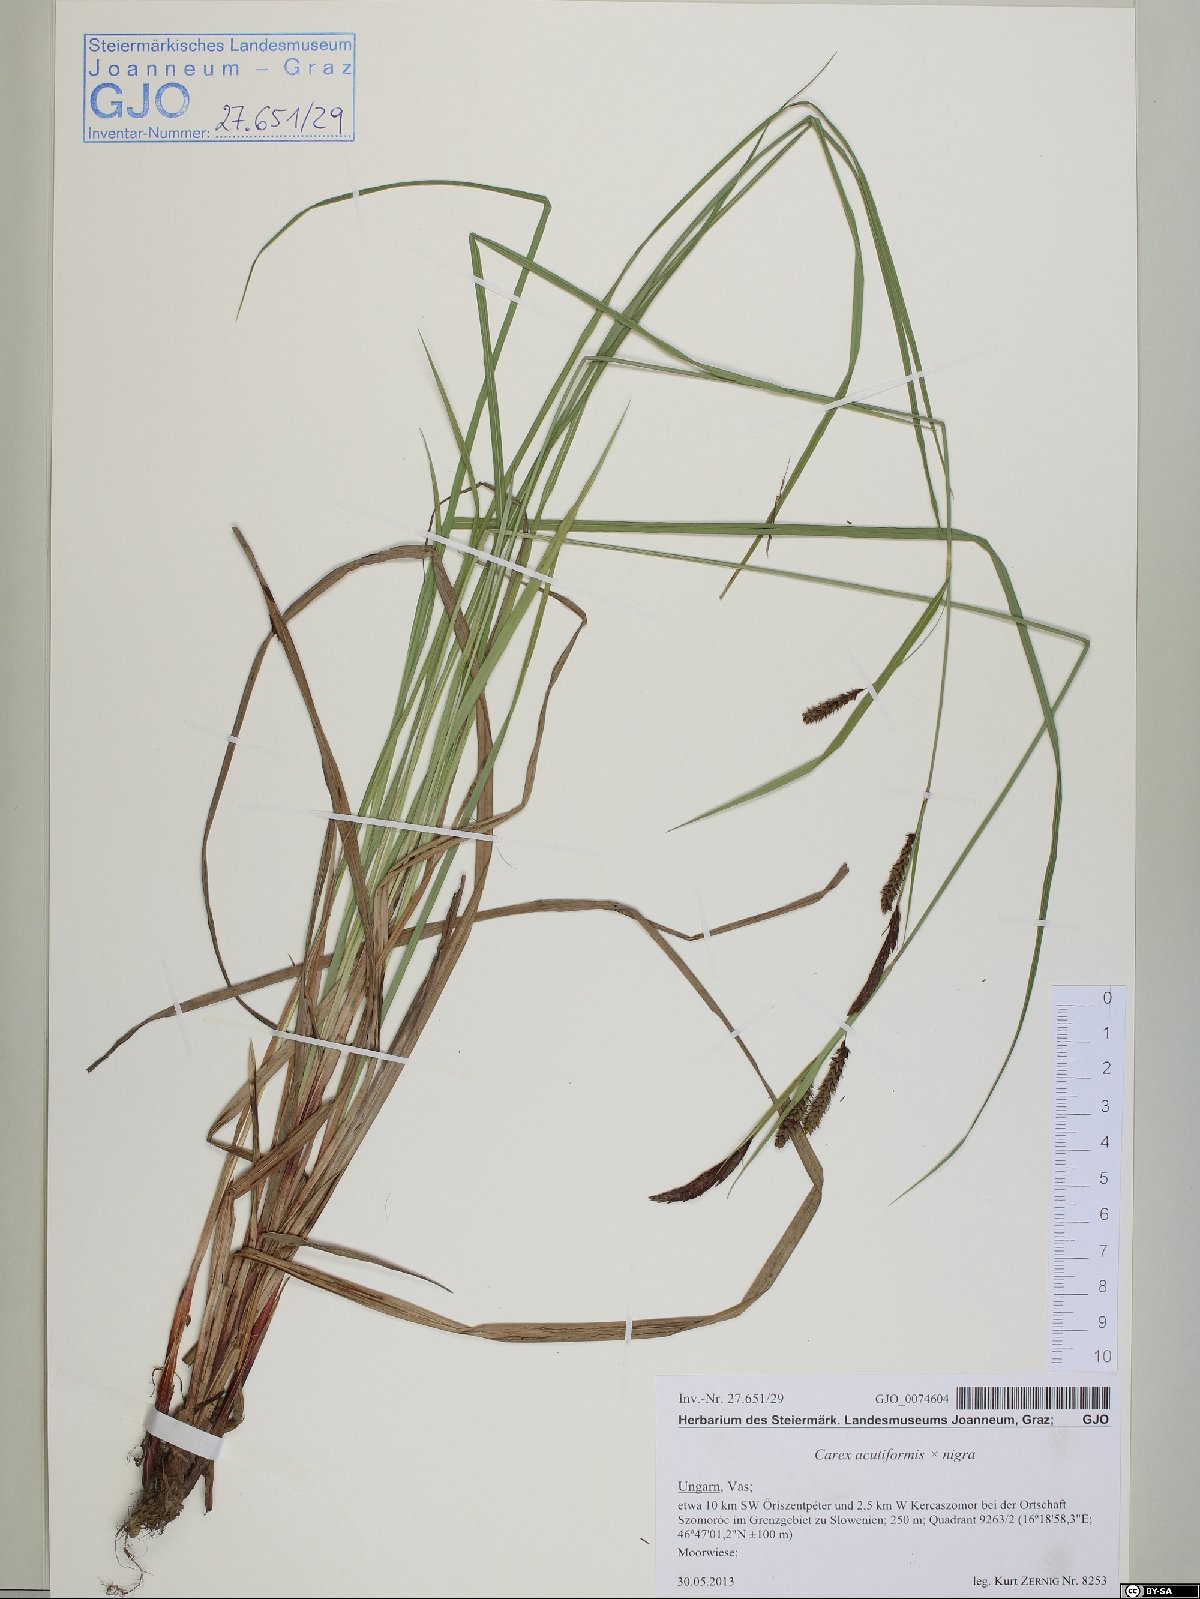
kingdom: Plantae
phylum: Tracheophyta
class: Liliopsida
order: Poales
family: Cyperaceae
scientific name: Cyperaceae
